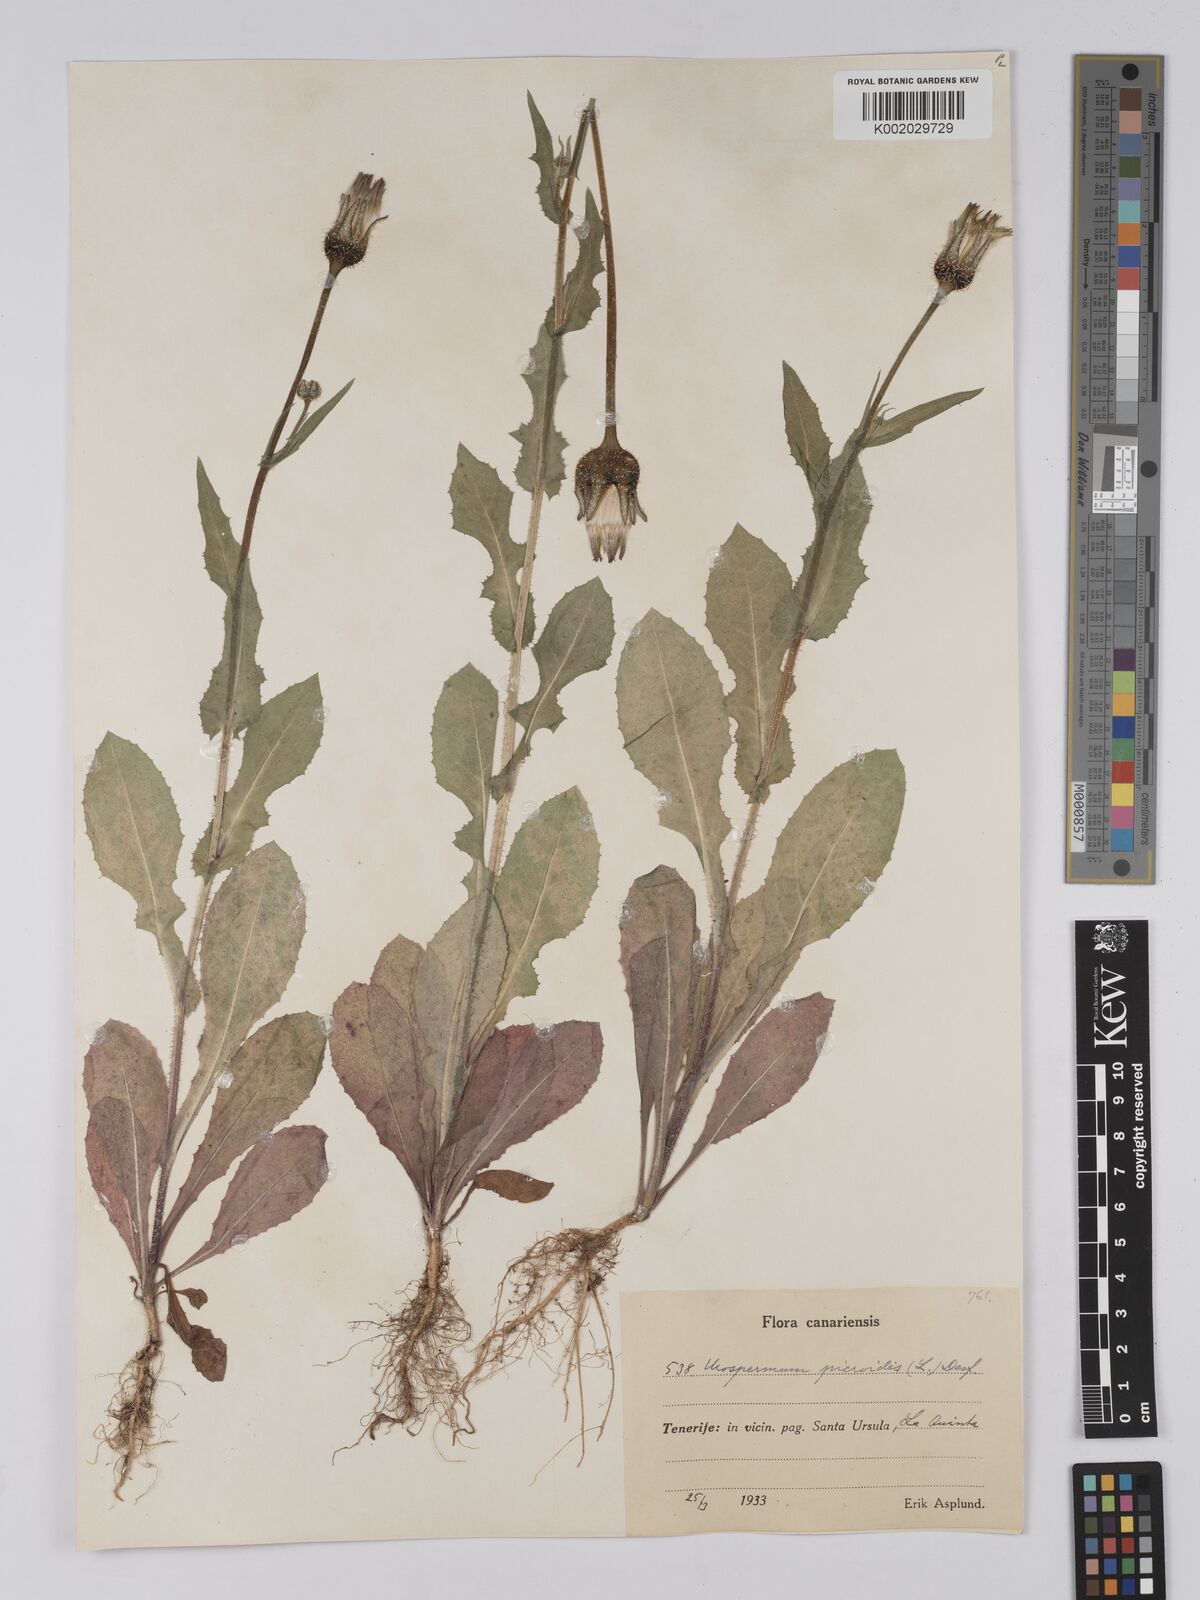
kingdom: Plantae
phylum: Tracheophyta
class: Magnoliopsida
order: Asterales
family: Asteraceae
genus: Urospermum
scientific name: Urospermum picroides
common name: False hawkbit
